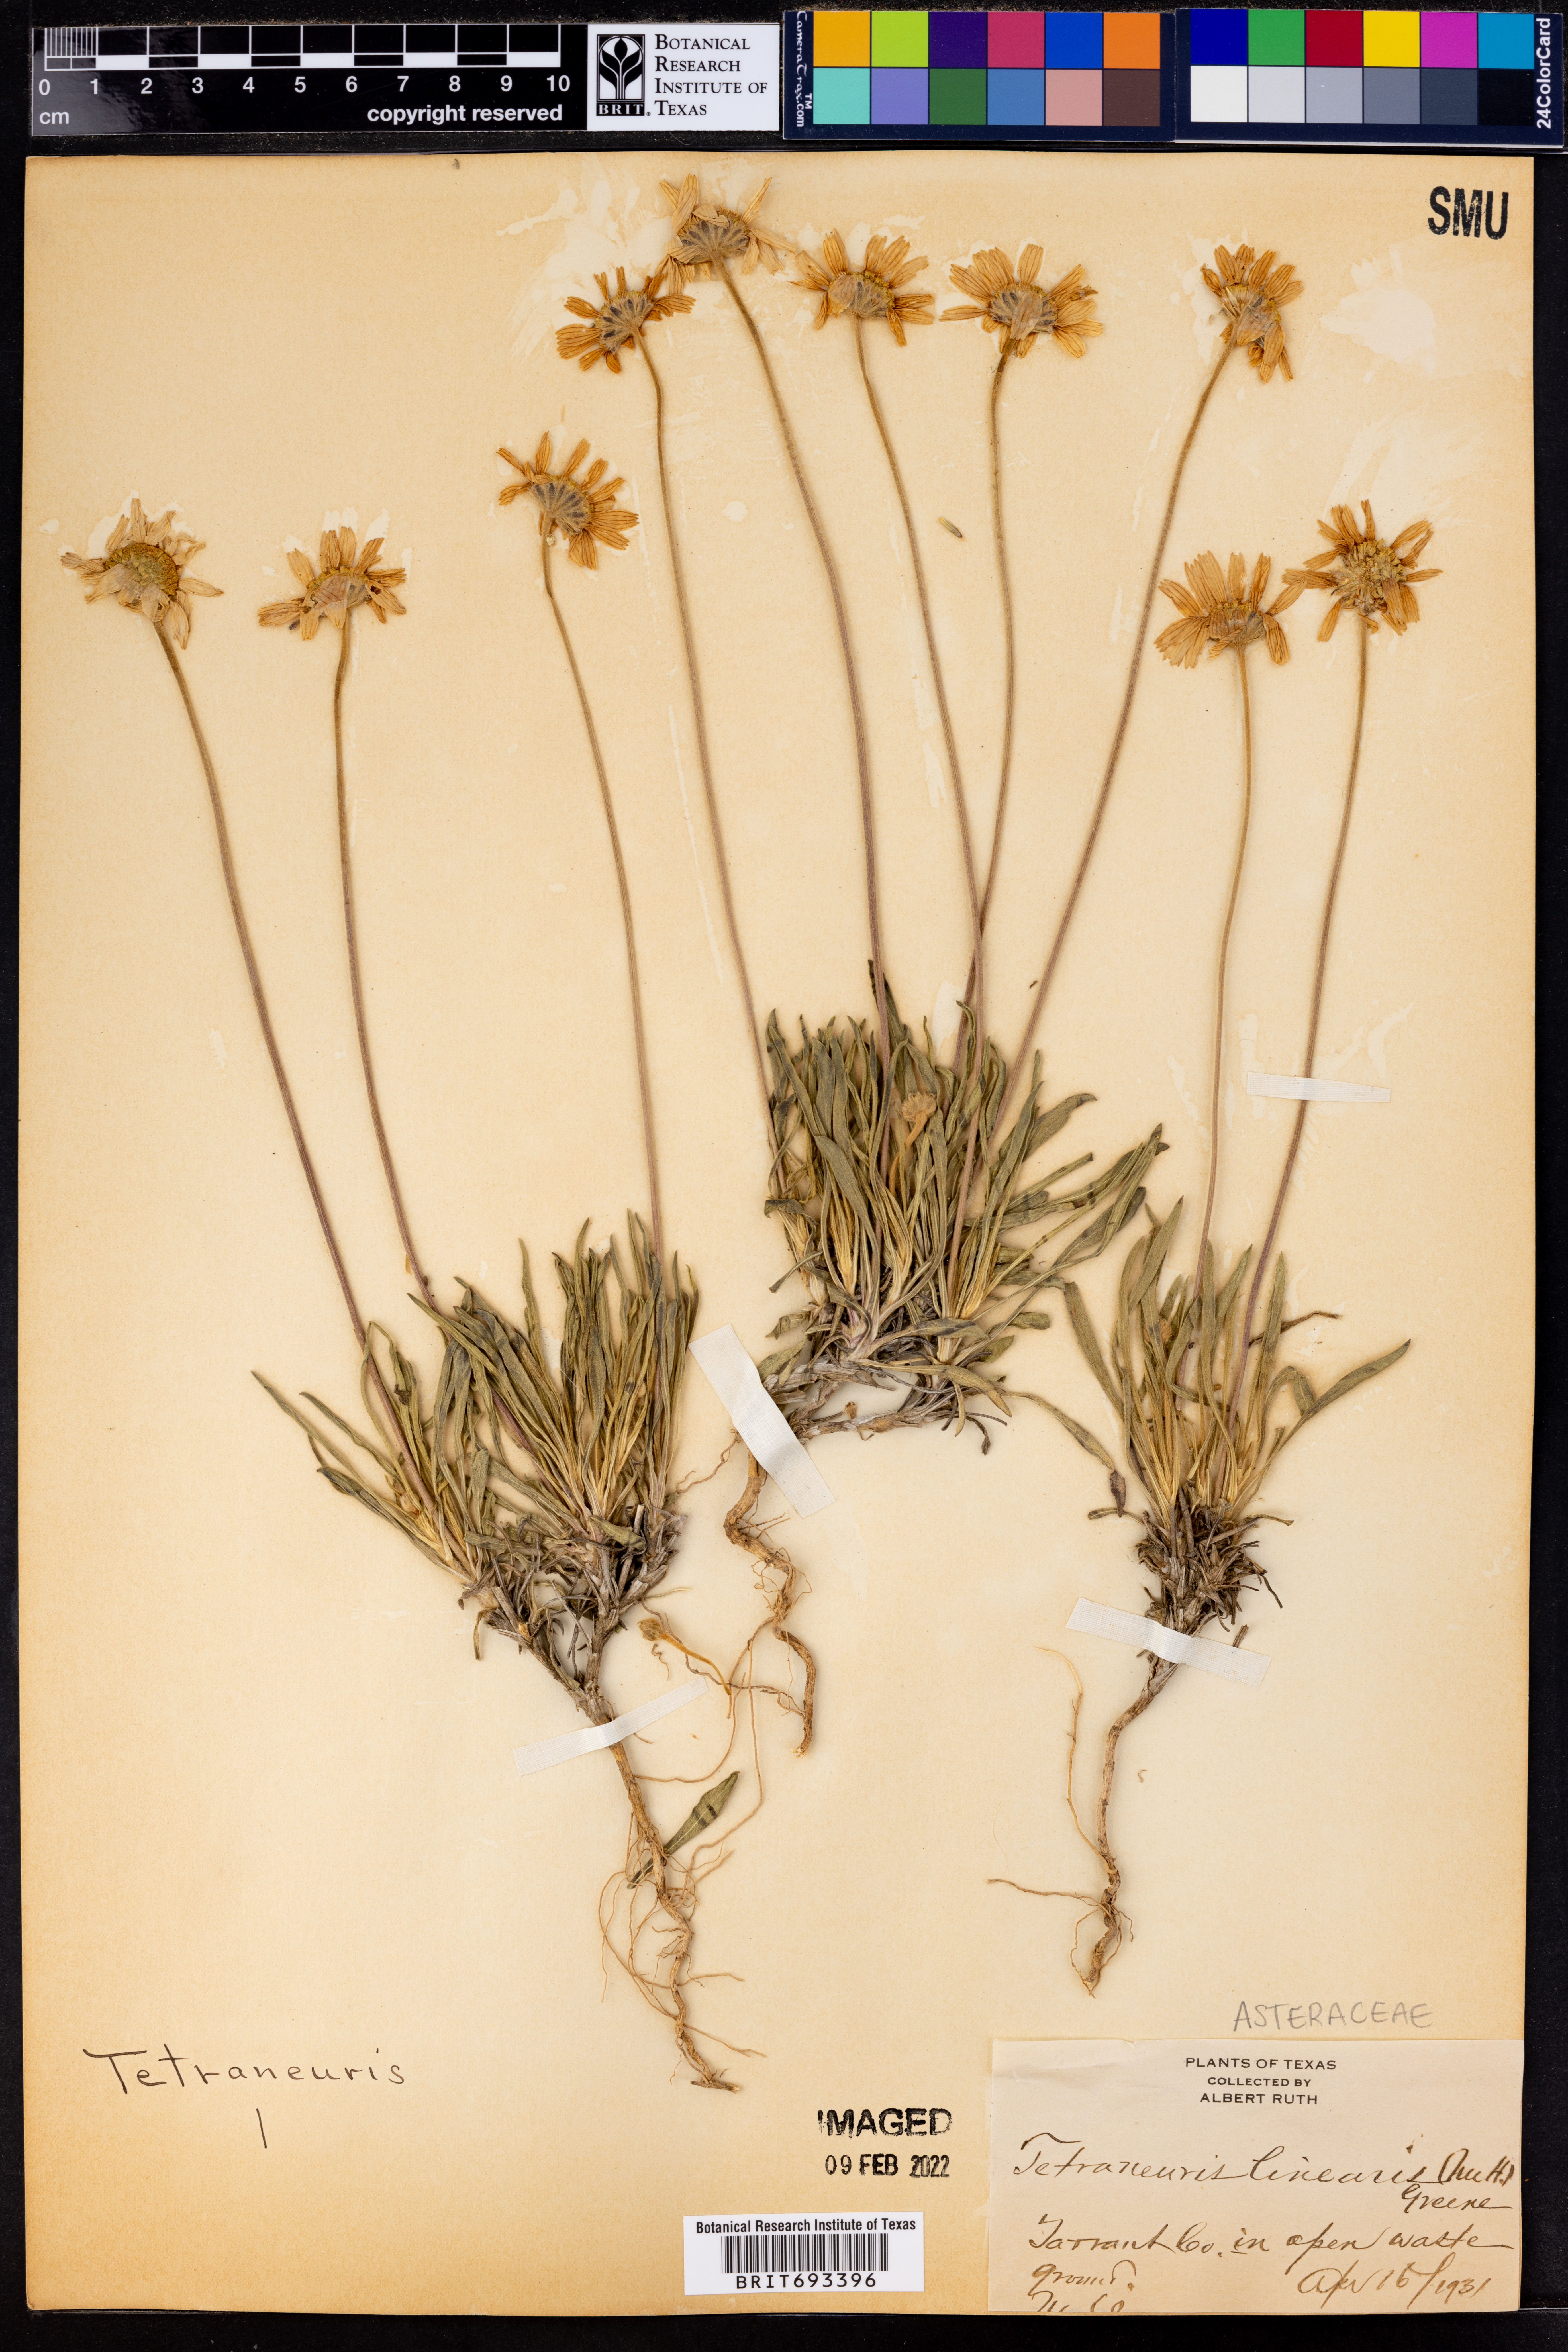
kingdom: Plantae
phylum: Tracheophyta
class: Magnoliopsida
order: Asterales
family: Asteraceae
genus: Tetraneuris
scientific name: Tetraneuris scaposa
